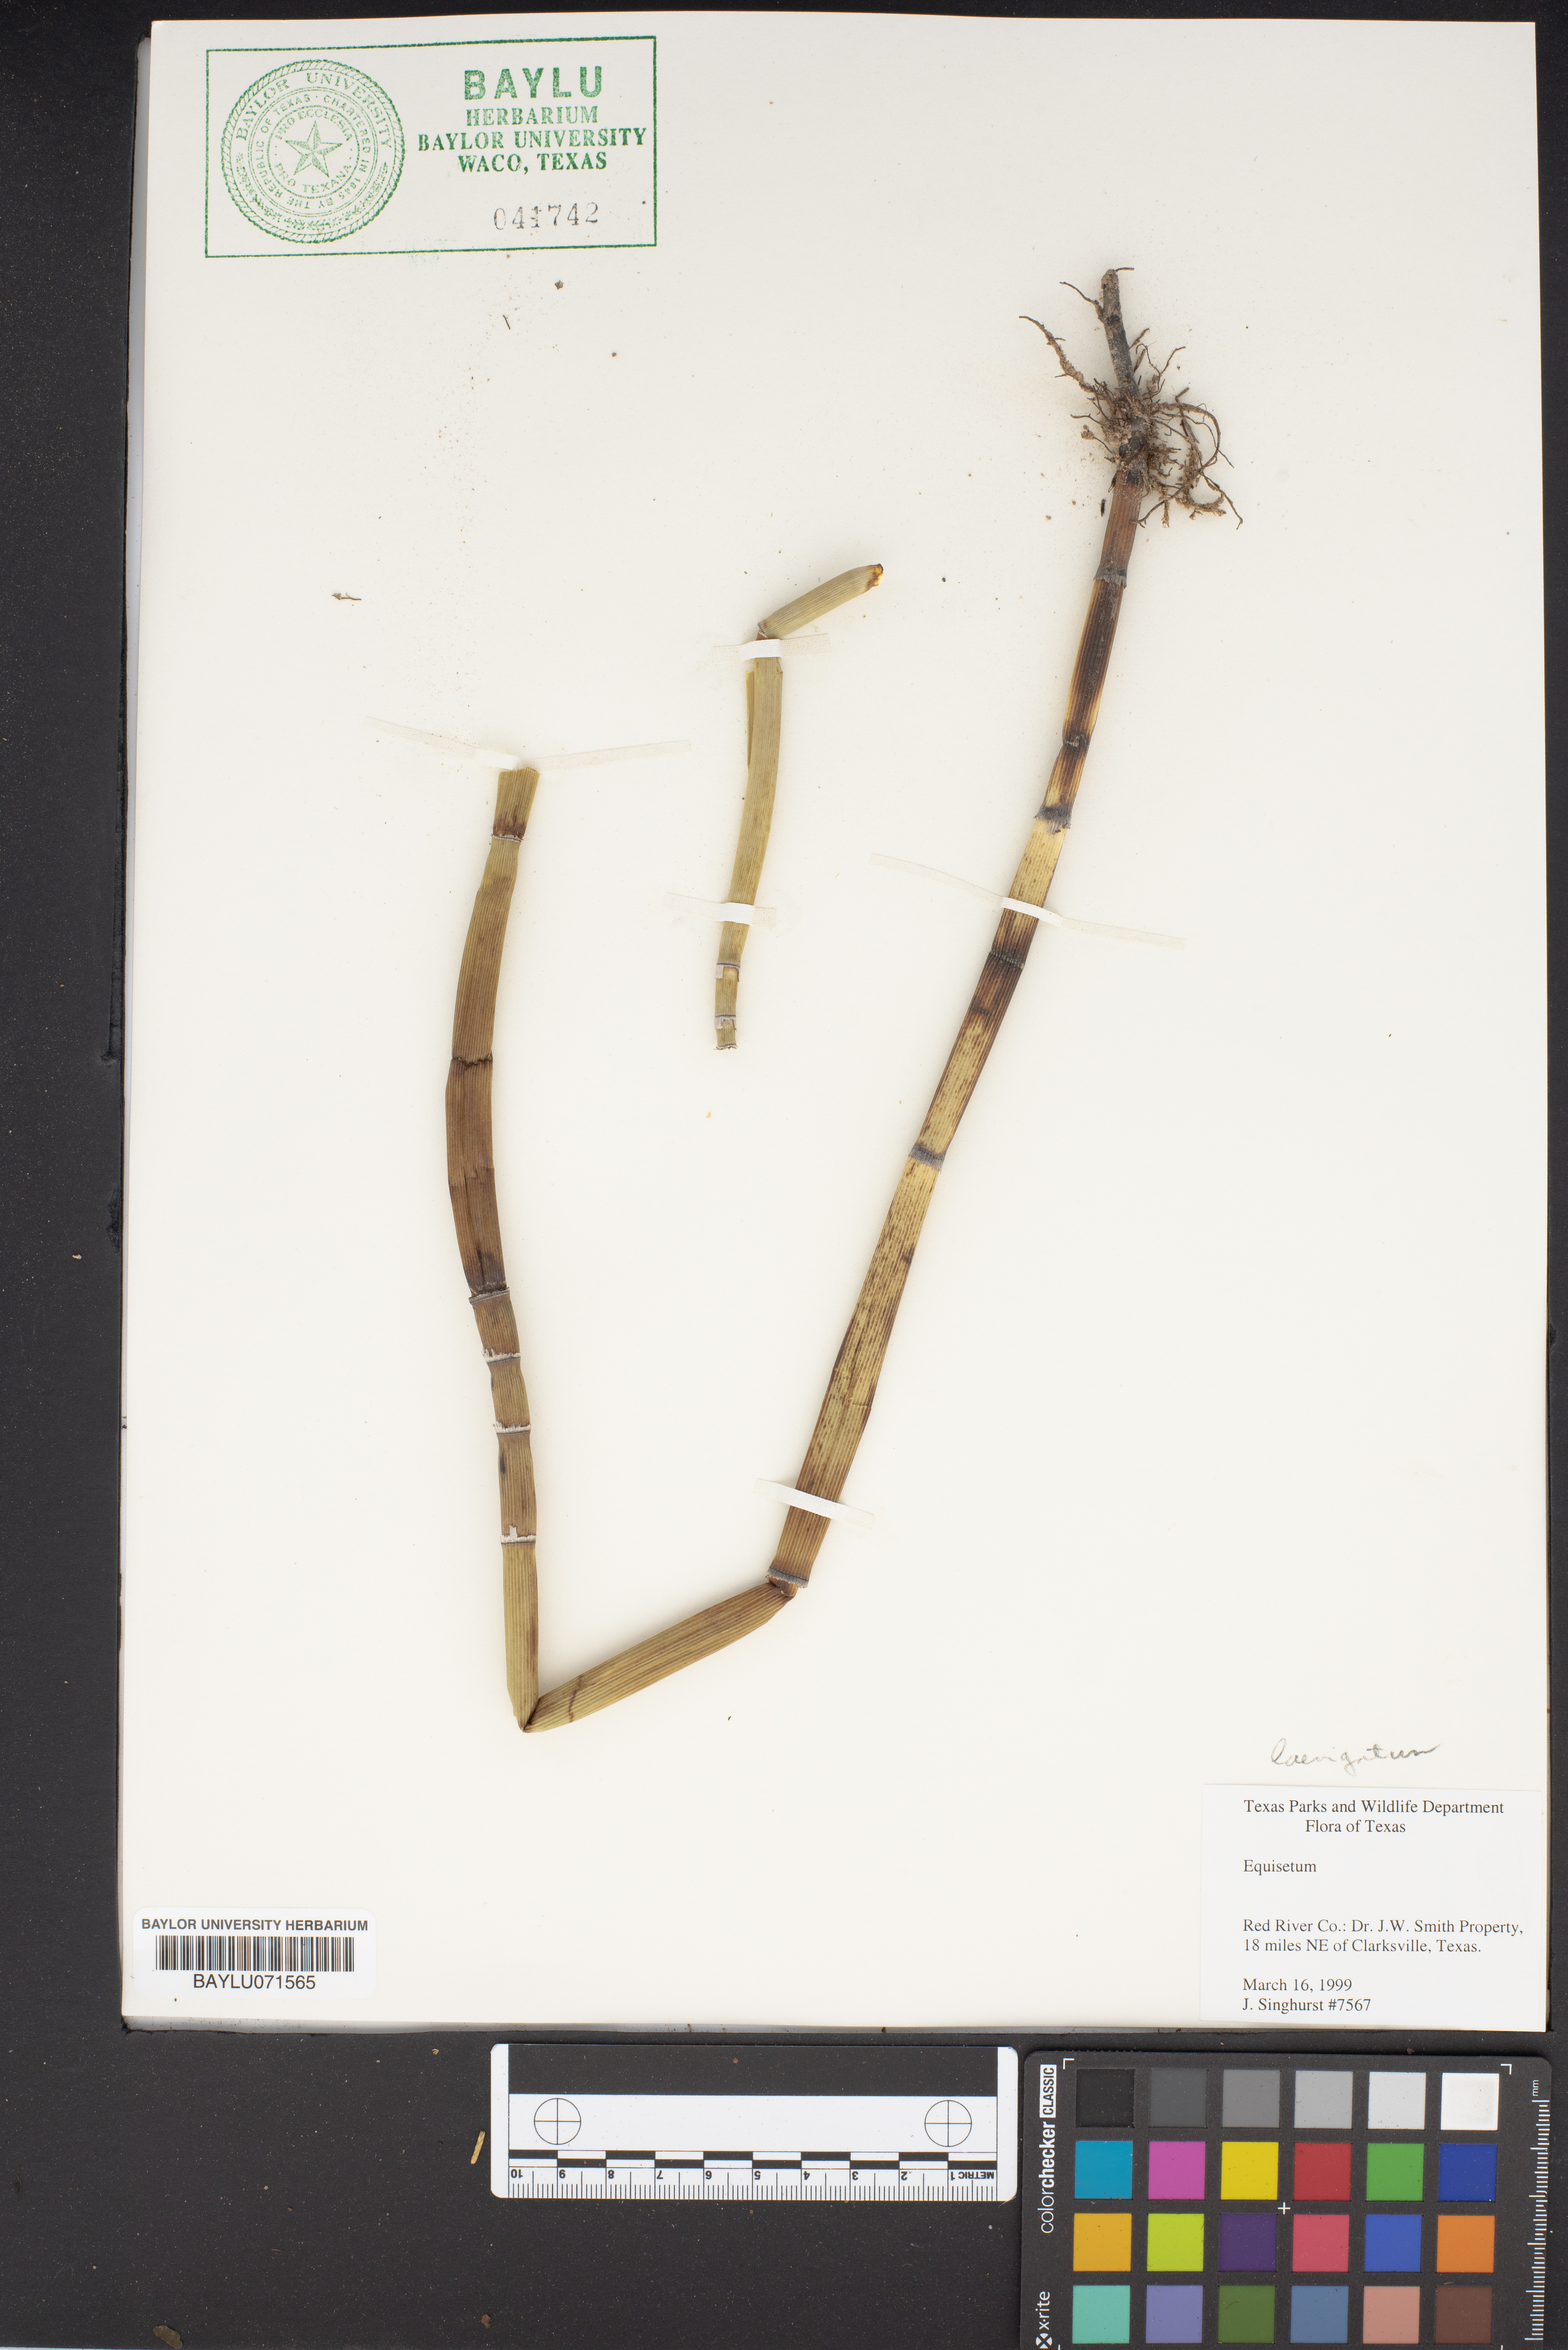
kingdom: Plantae
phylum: Tracheophyta
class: Polypodiopsida
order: Equisetales
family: Equisetaceae
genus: Equisetum
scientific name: Equisetum
